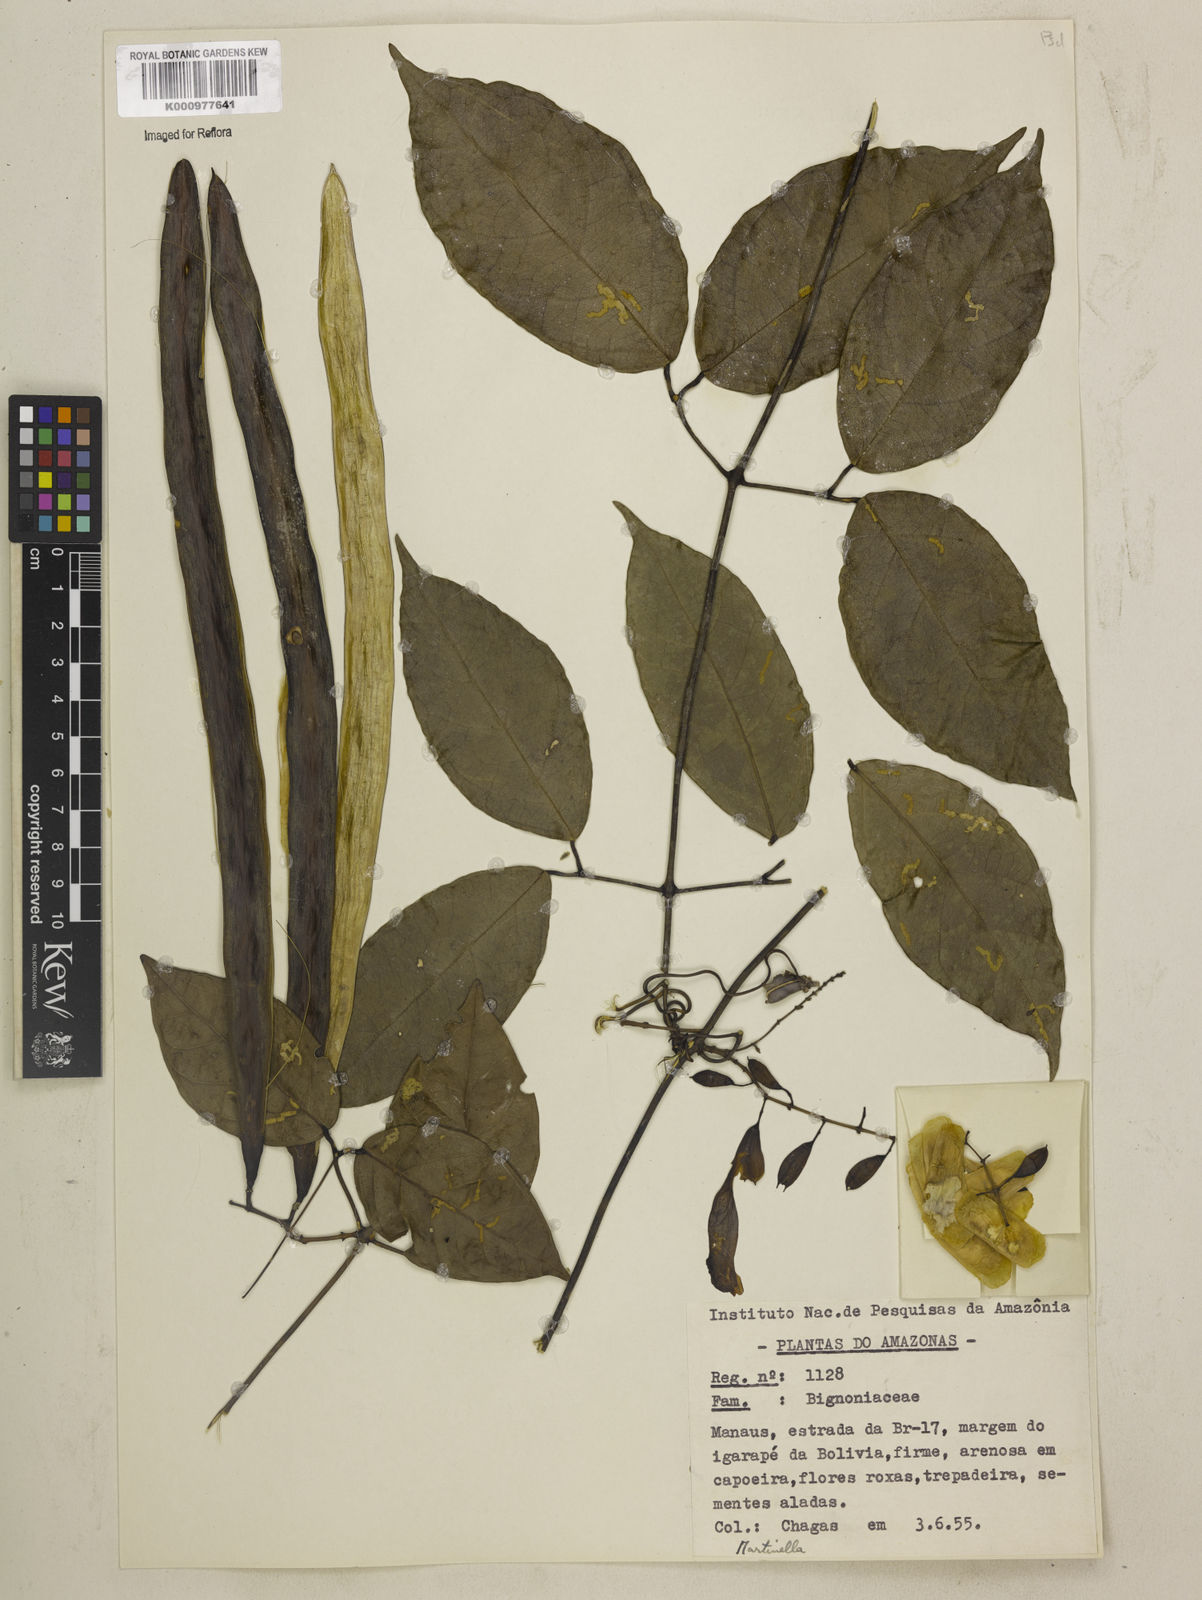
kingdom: Animalia
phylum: Arthropoda
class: Insecta
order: Coleoptera
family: Chrysomelidae
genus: Martinella
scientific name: Martinella obovata
